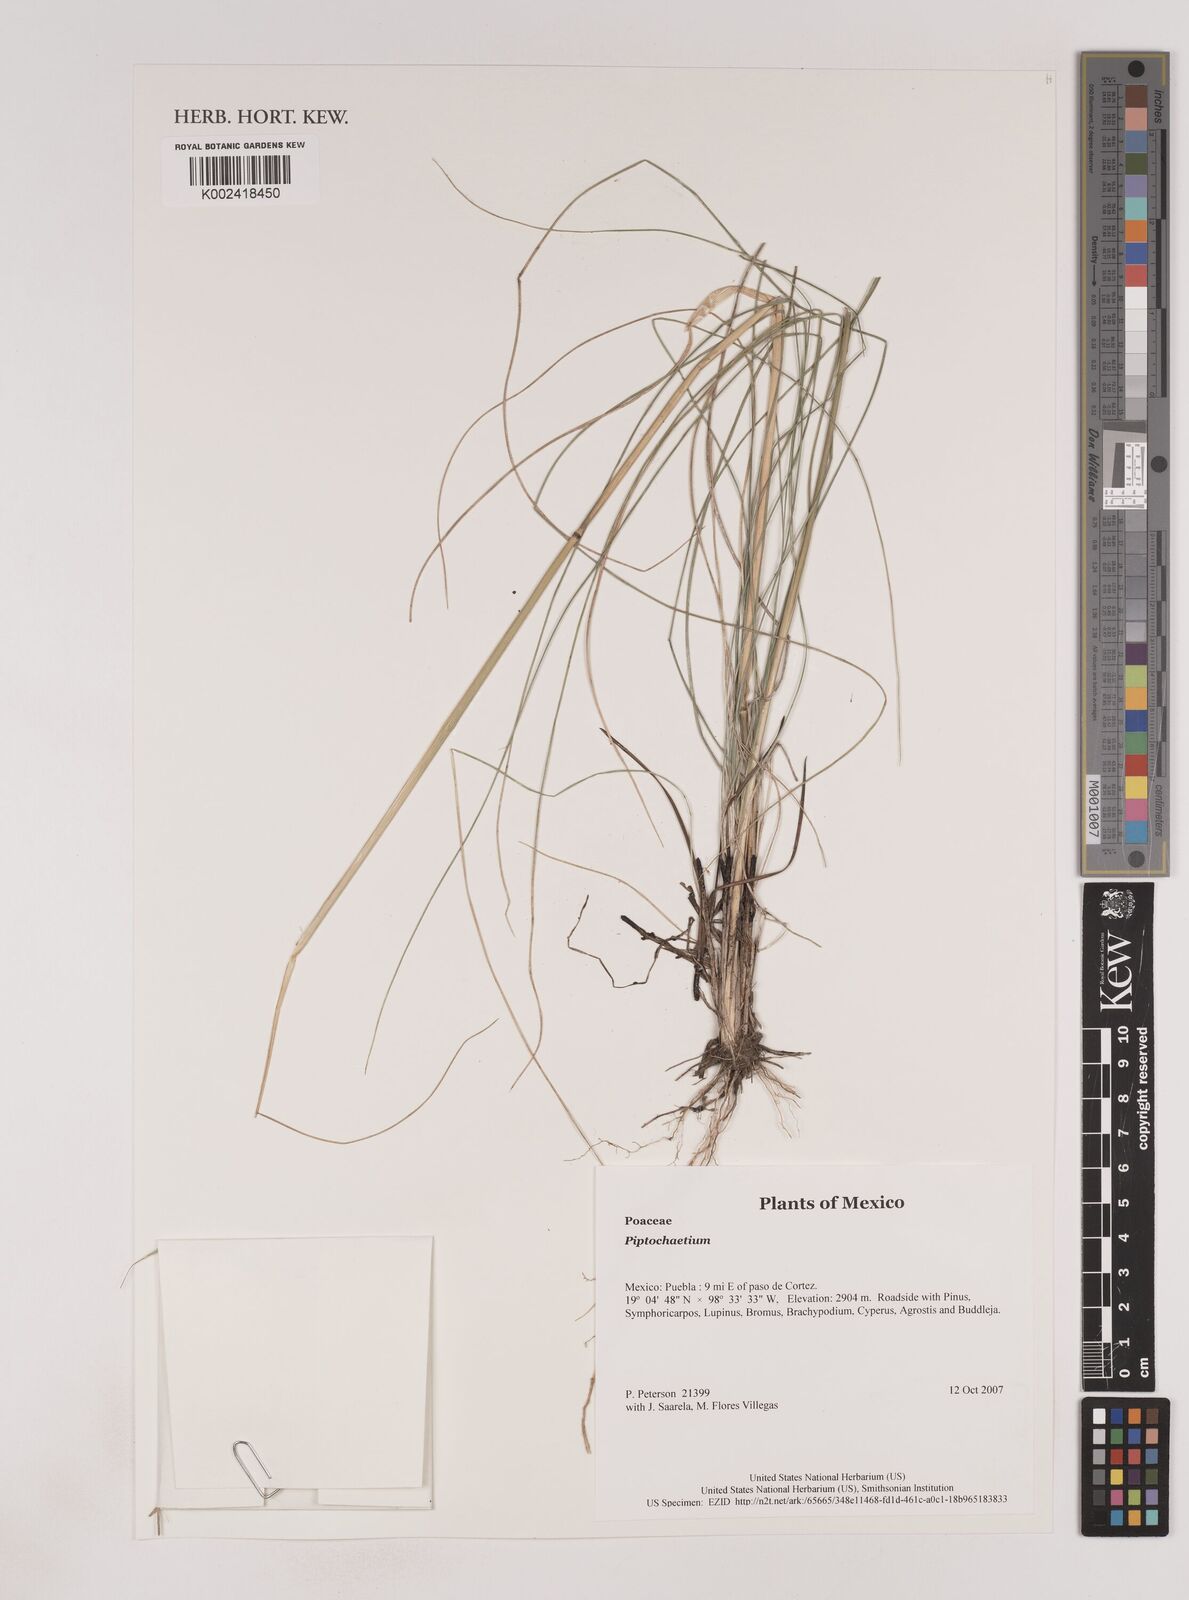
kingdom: Plantae
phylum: Tracheophyta
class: Liliopsida
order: Poales
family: Poaceae
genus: Piptochaetium
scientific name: Piptochaetium
